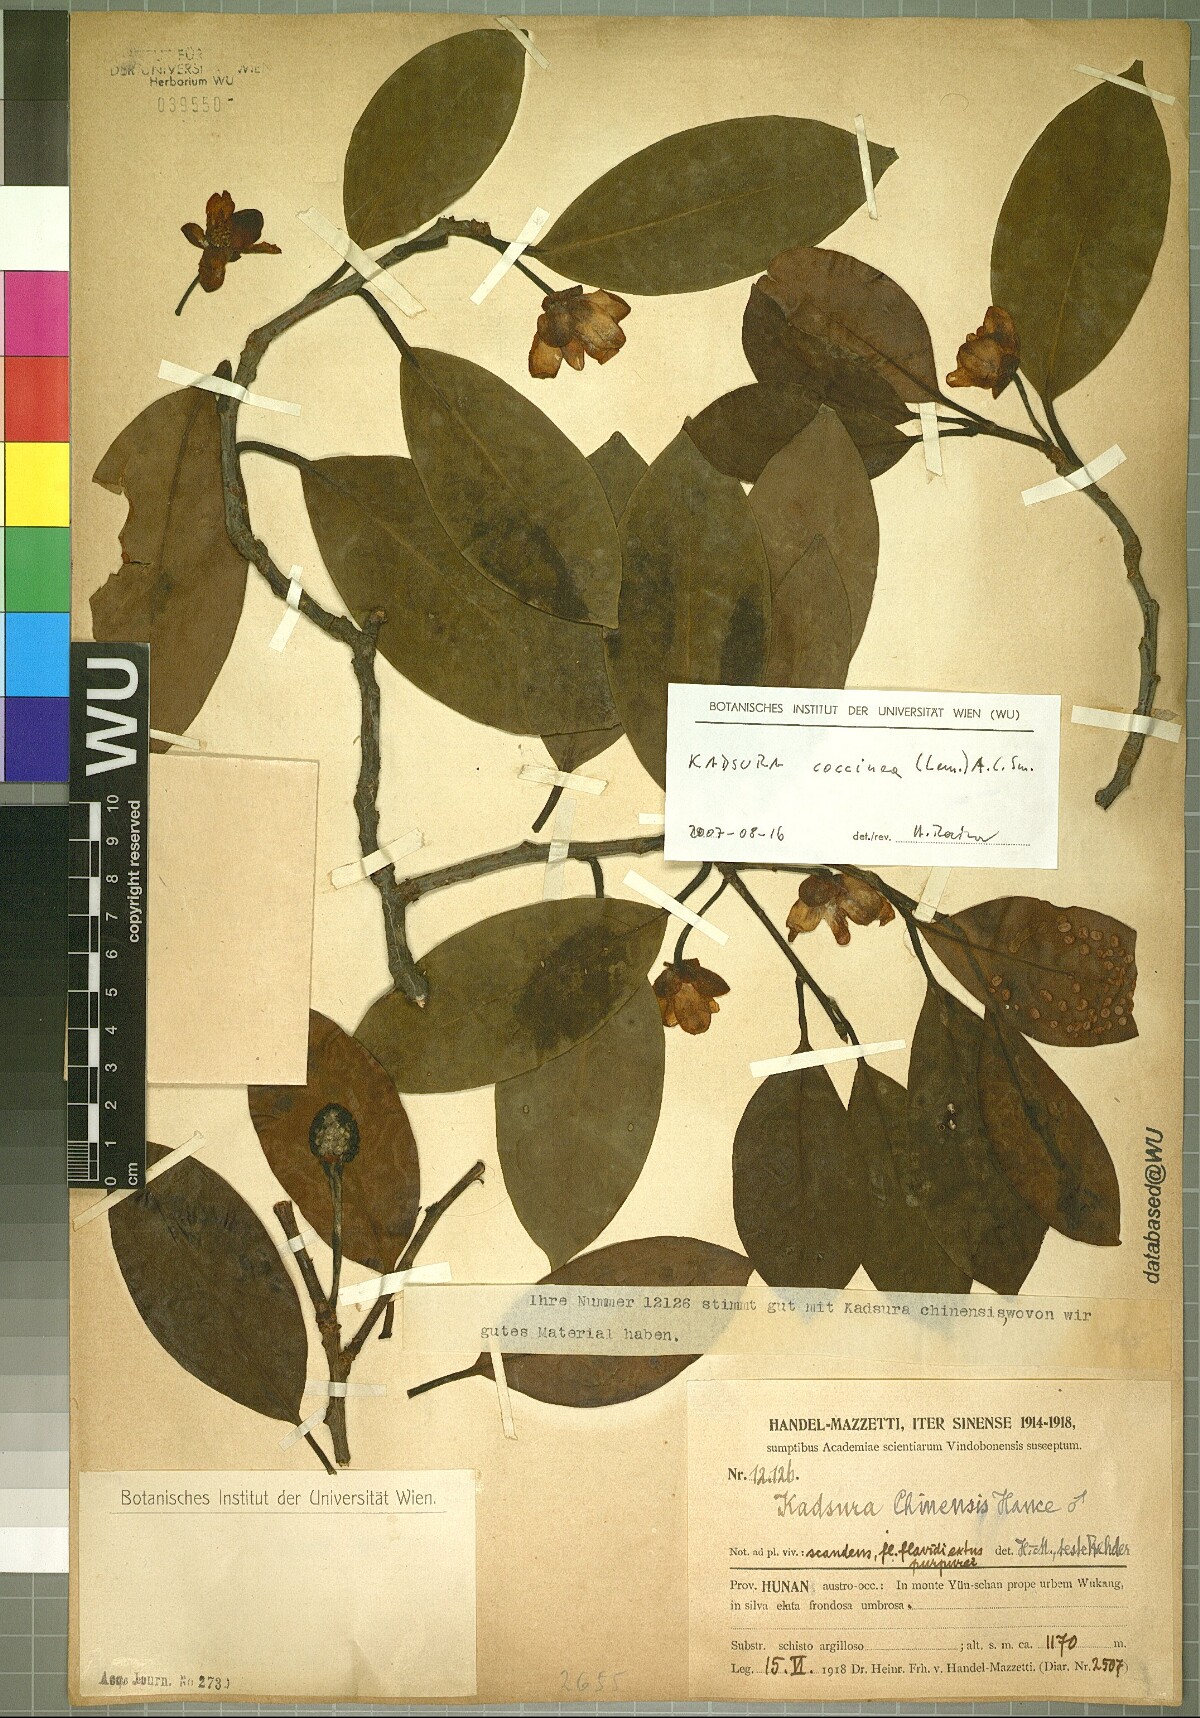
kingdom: Plantae
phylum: Tracheophyta
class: Magnoliopsida
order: Austrobaileyales
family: Schisandraceae
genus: Kadsura
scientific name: Kadsura coccinea
